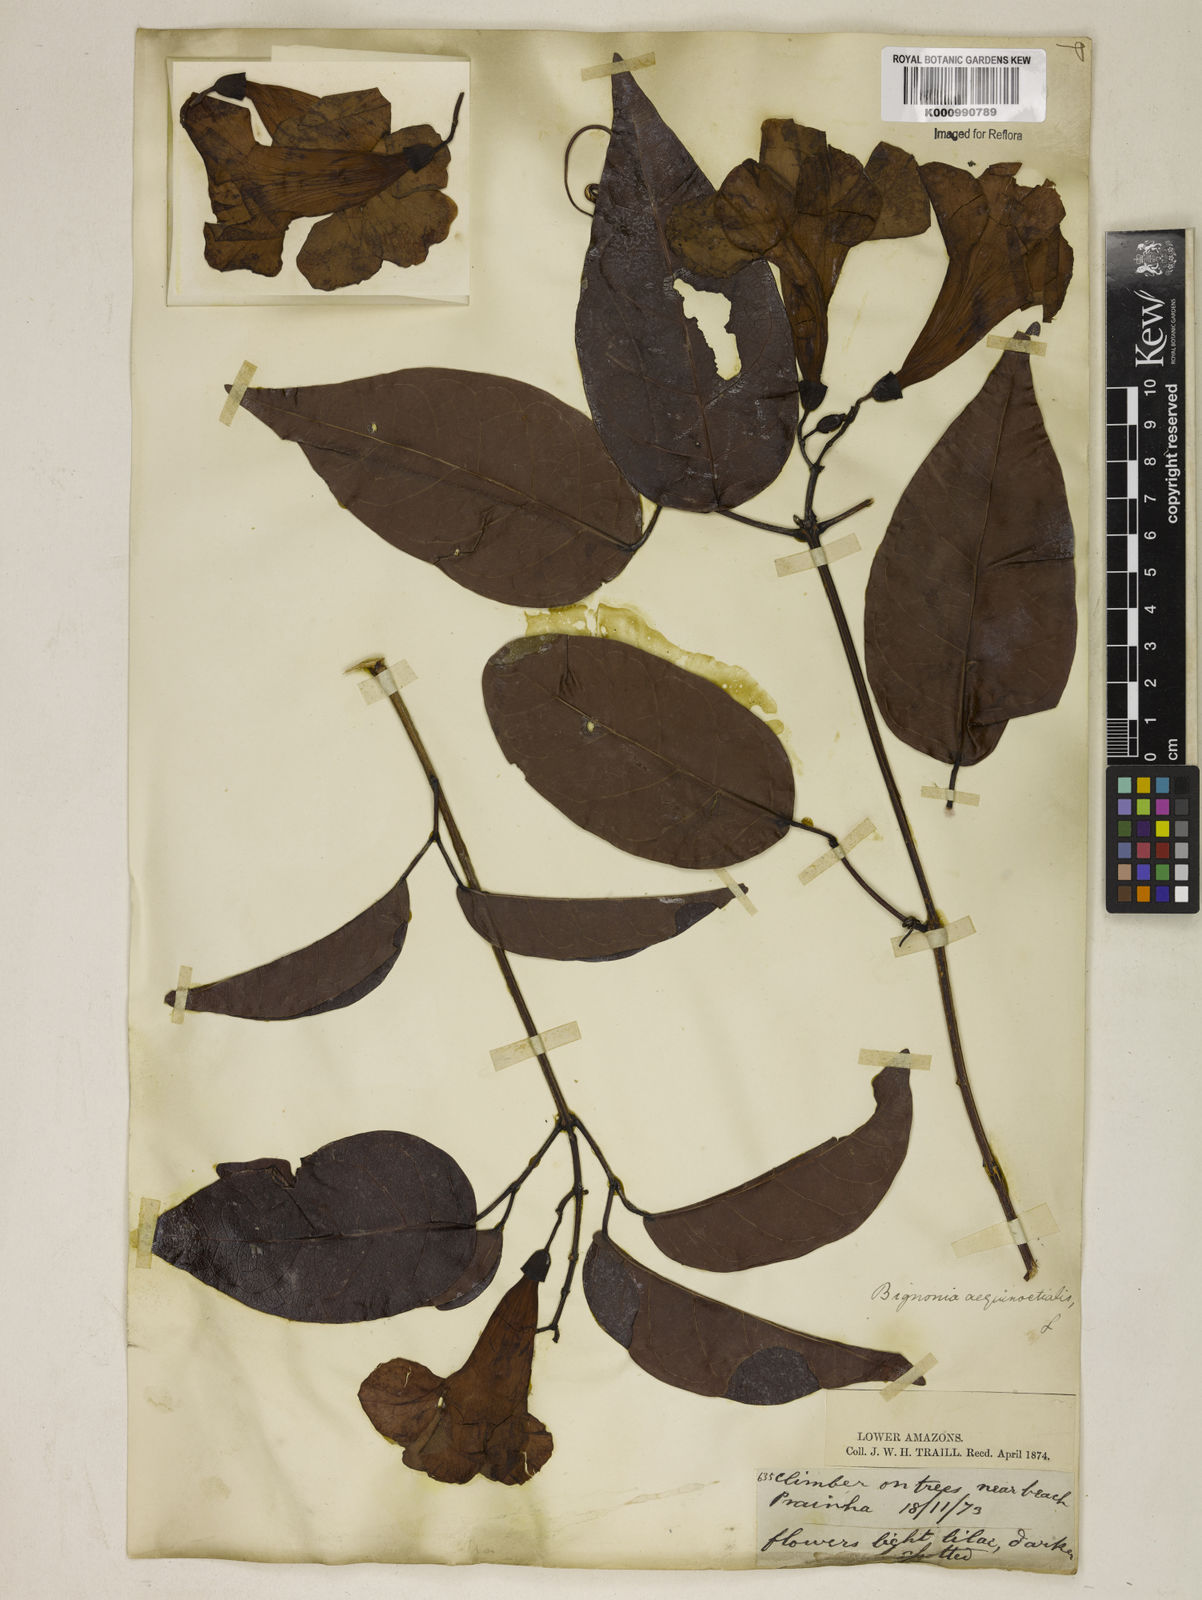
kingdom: Plantae
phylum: Tracheophyta
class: Magnoliopsida
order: Lamiales
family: Bignoniaceae
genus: Bignonia
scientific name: Bignonia aequinoctialis
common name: Garlicvine
